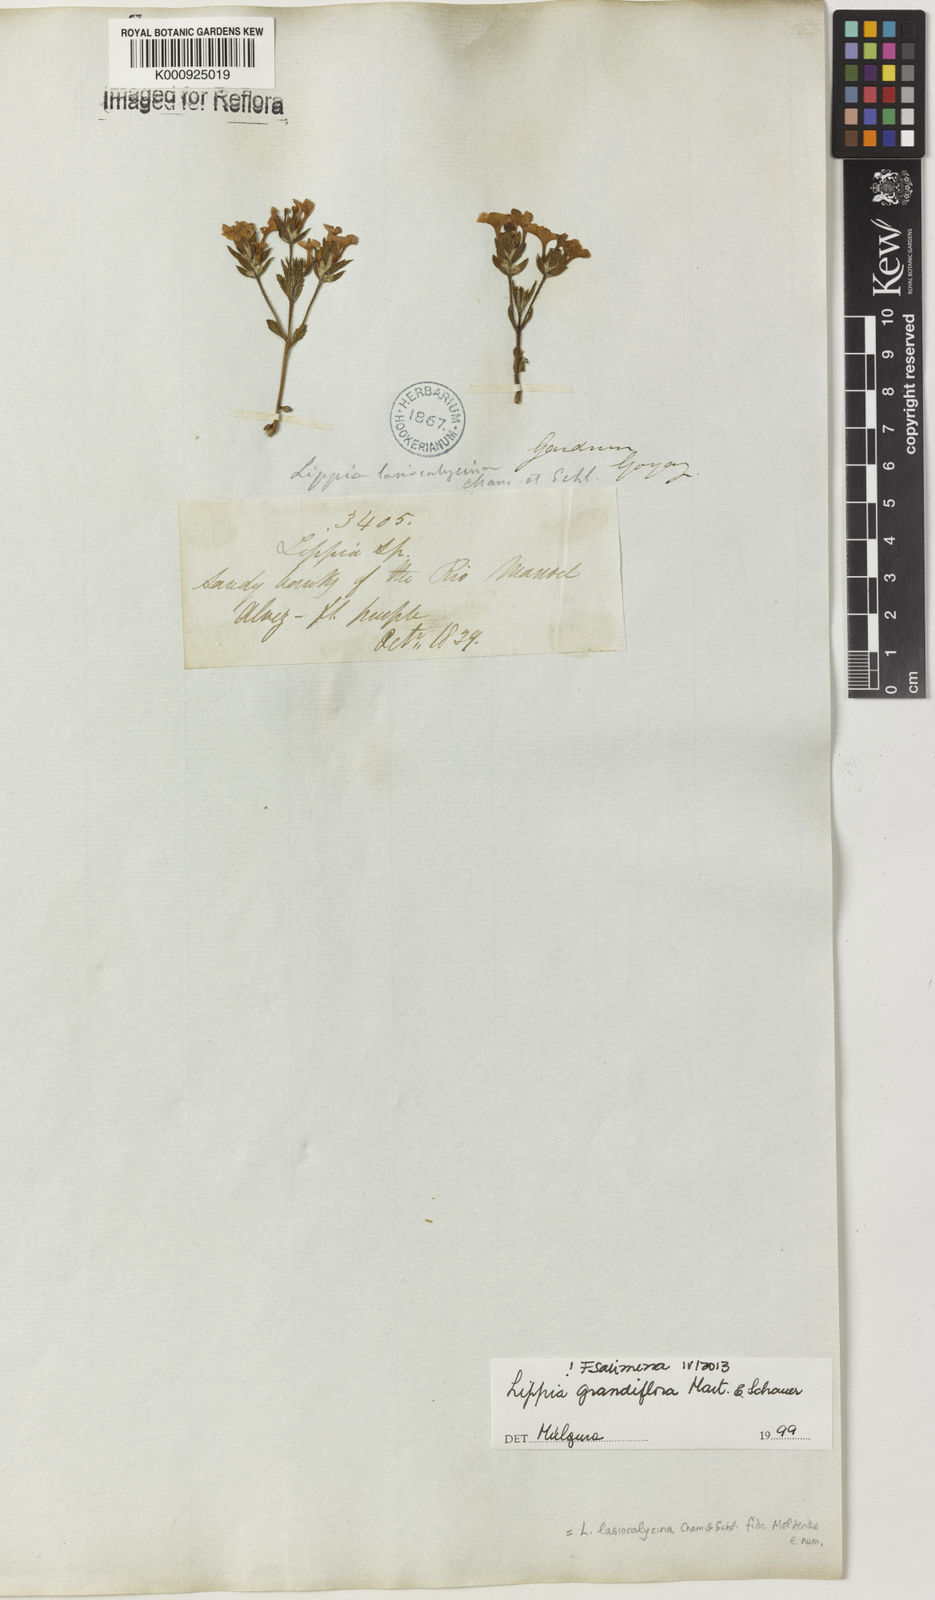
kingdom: Plantae
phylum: Tracheophyta
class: Magnoliopsida
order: Lamiales
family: Verbenaceae
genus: Lippia
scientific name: Lippia grandiflora
